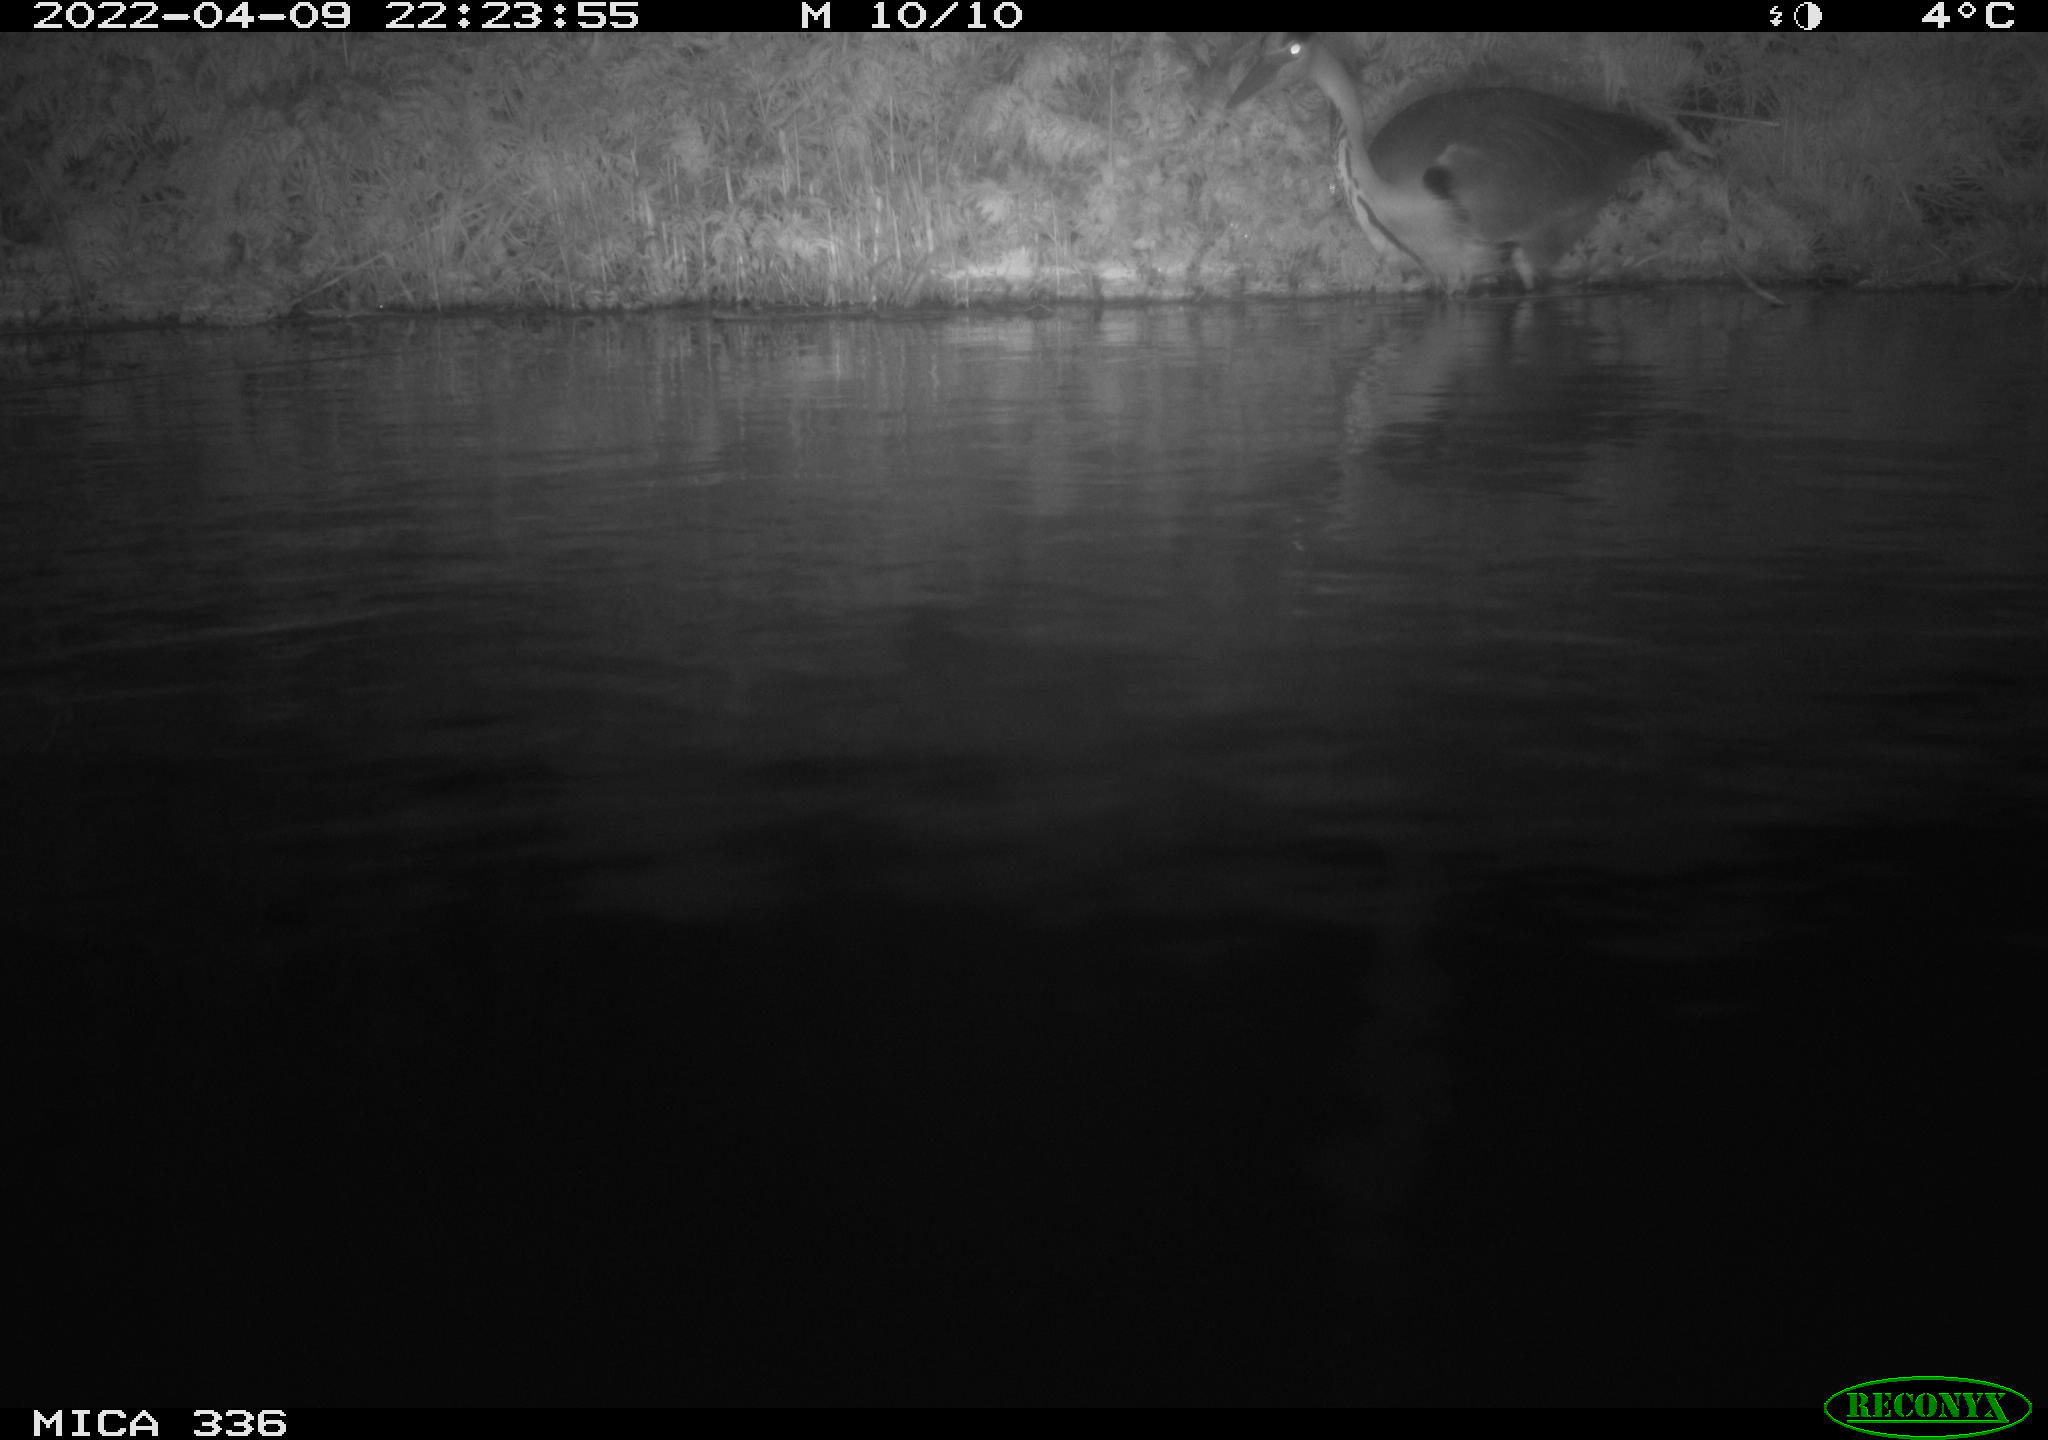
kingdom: Animalia
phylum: Chordata
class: Aves
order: Pelecaniformes
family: Ardeidae
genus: Ardea
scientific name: Ardea cinerea
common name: Grey heron
